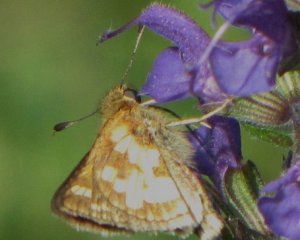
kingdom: Animalia
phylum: Arthropoda
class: Insecta
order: Lepidoptera
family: Hesperiidae
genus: Polites
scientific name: Polites coras
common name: Peck's Skipper
